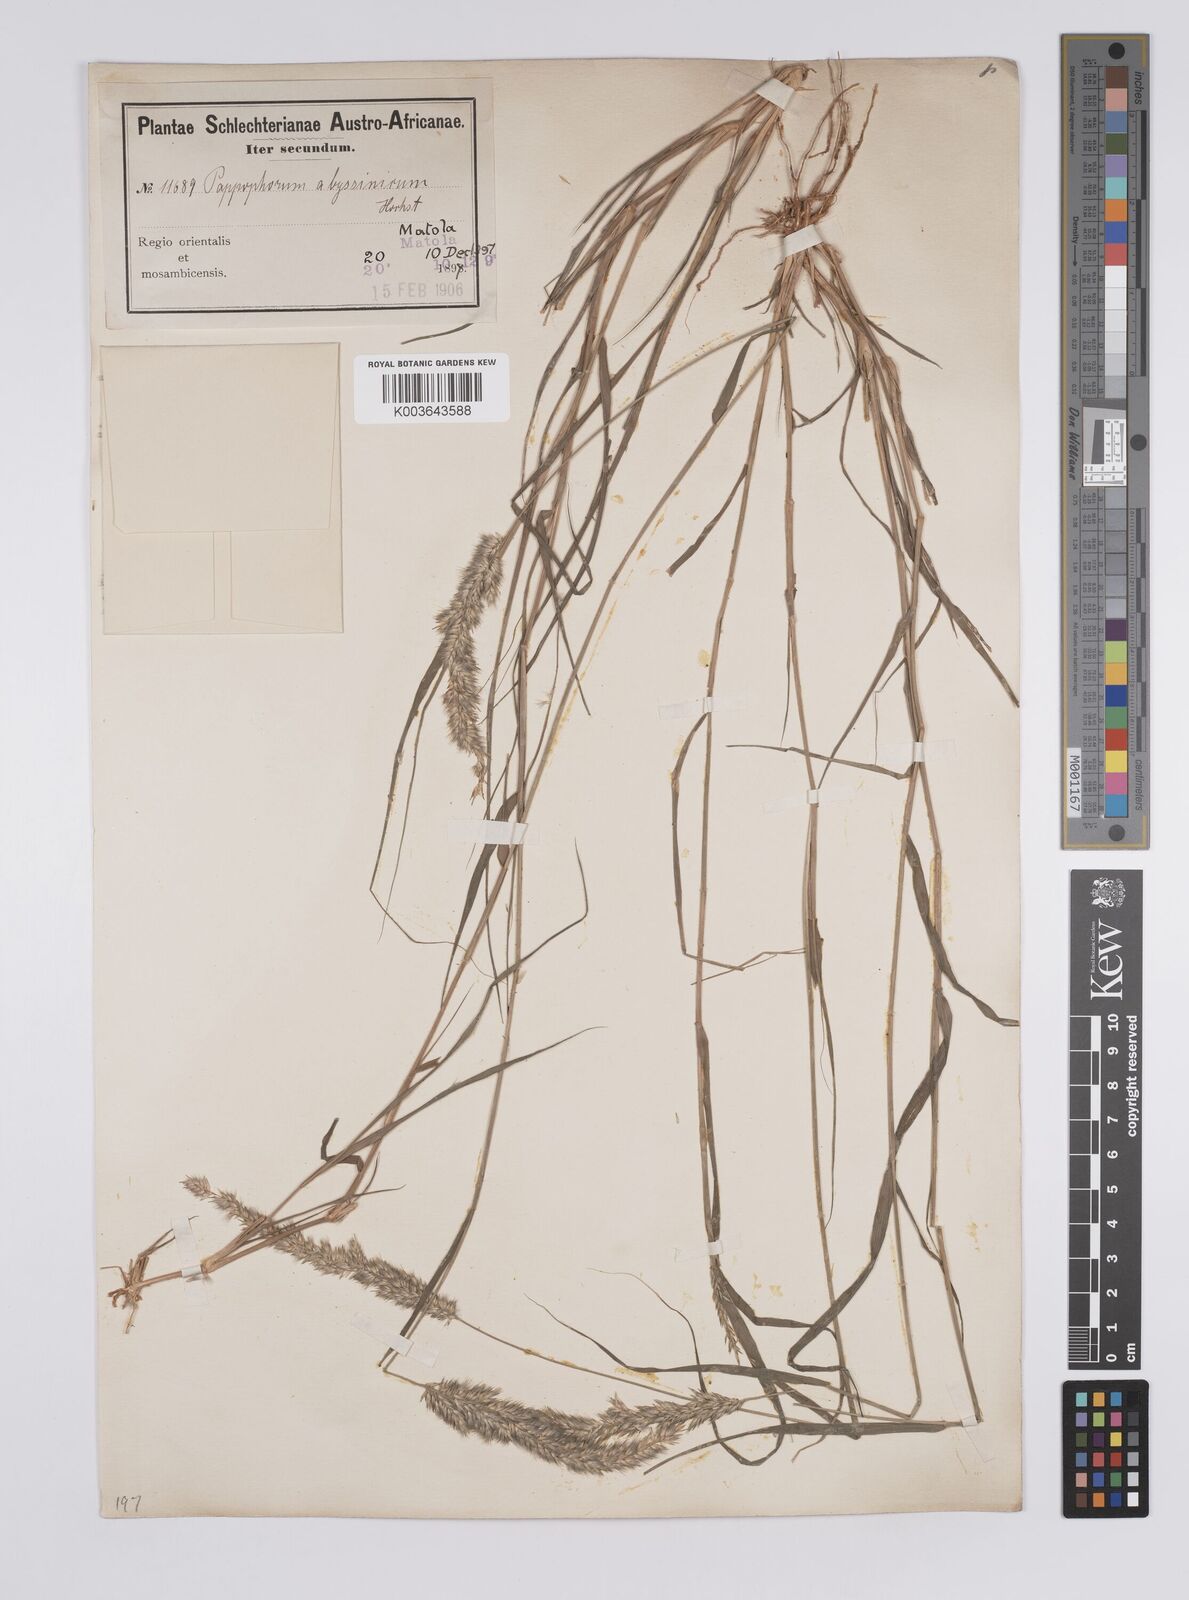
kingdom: Plantae
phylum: Tracheophyta
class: Liliopsida
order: Poales
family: Poaceae
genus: Enneapogon
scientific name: Enneapogon cenchroides
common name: Soft feather pappusgrass
